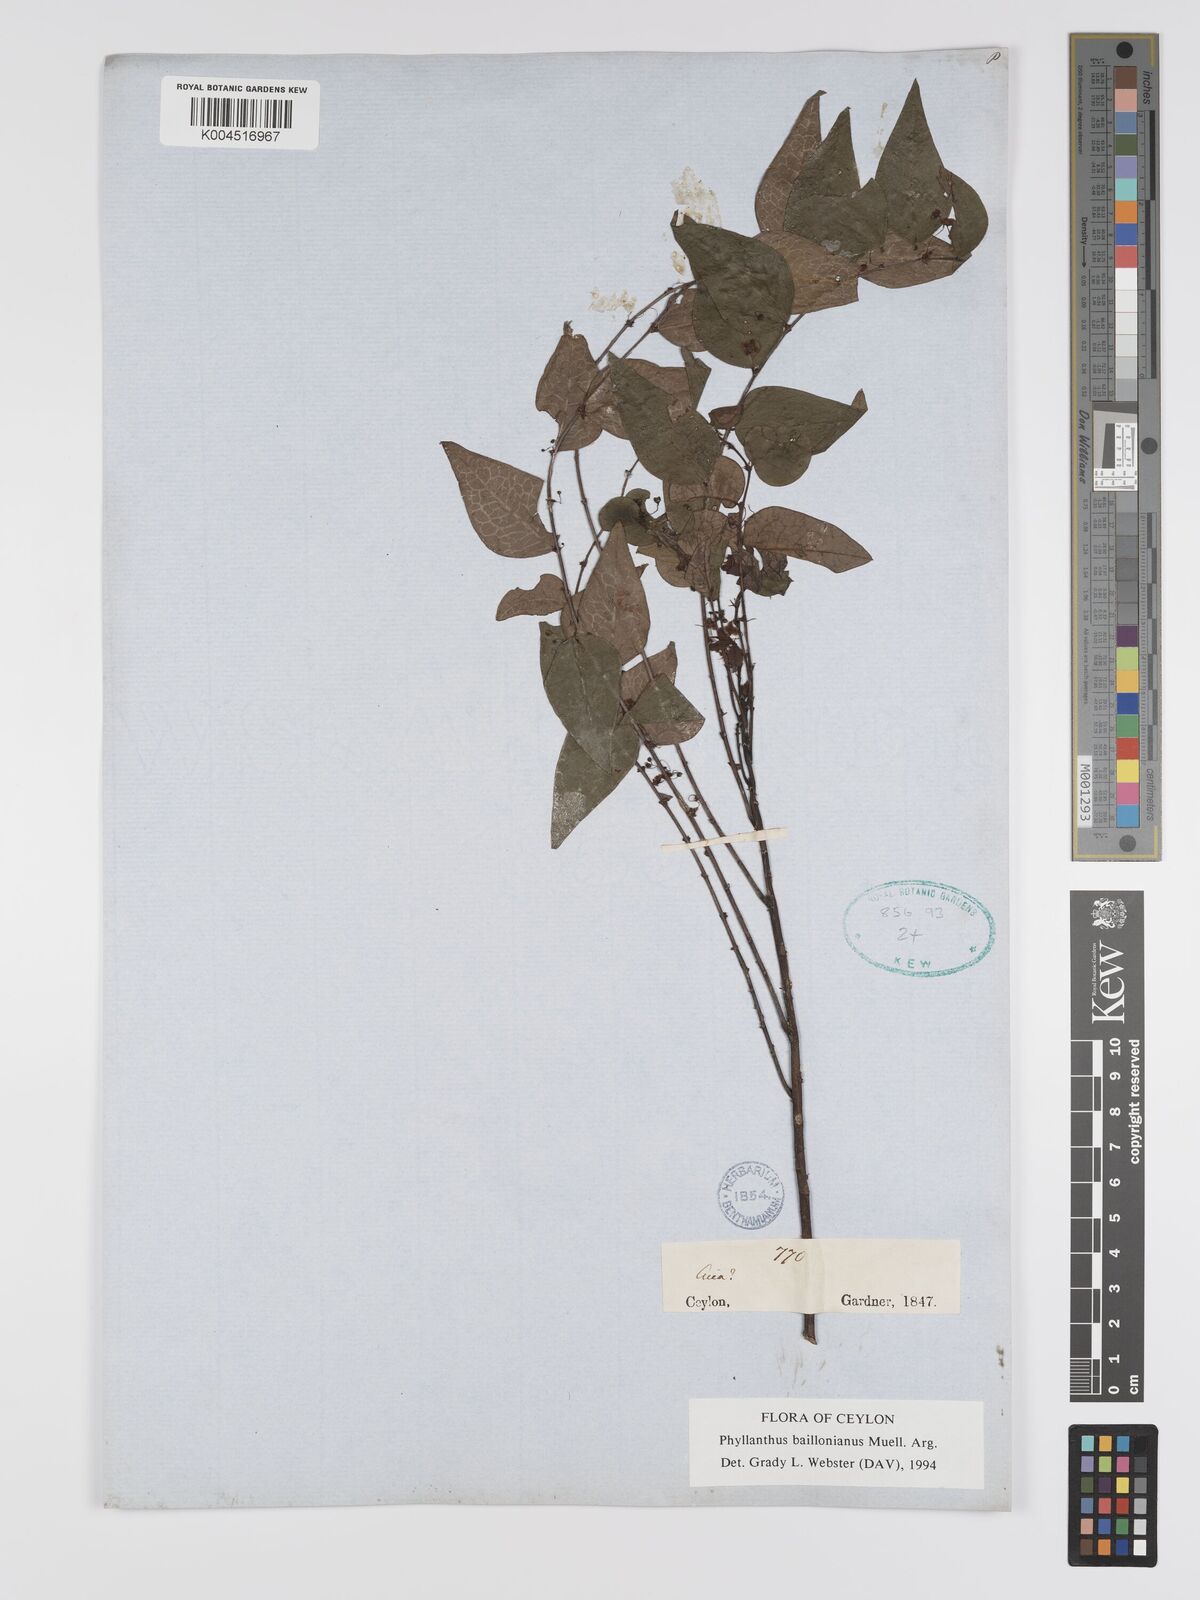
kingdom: Plantae
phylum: Tracheophyta
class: Magnoliopsida
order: Malpighiales
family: Phyllanthaceae
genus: Phyllanthus
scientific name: Phyllanthus baillonianus
